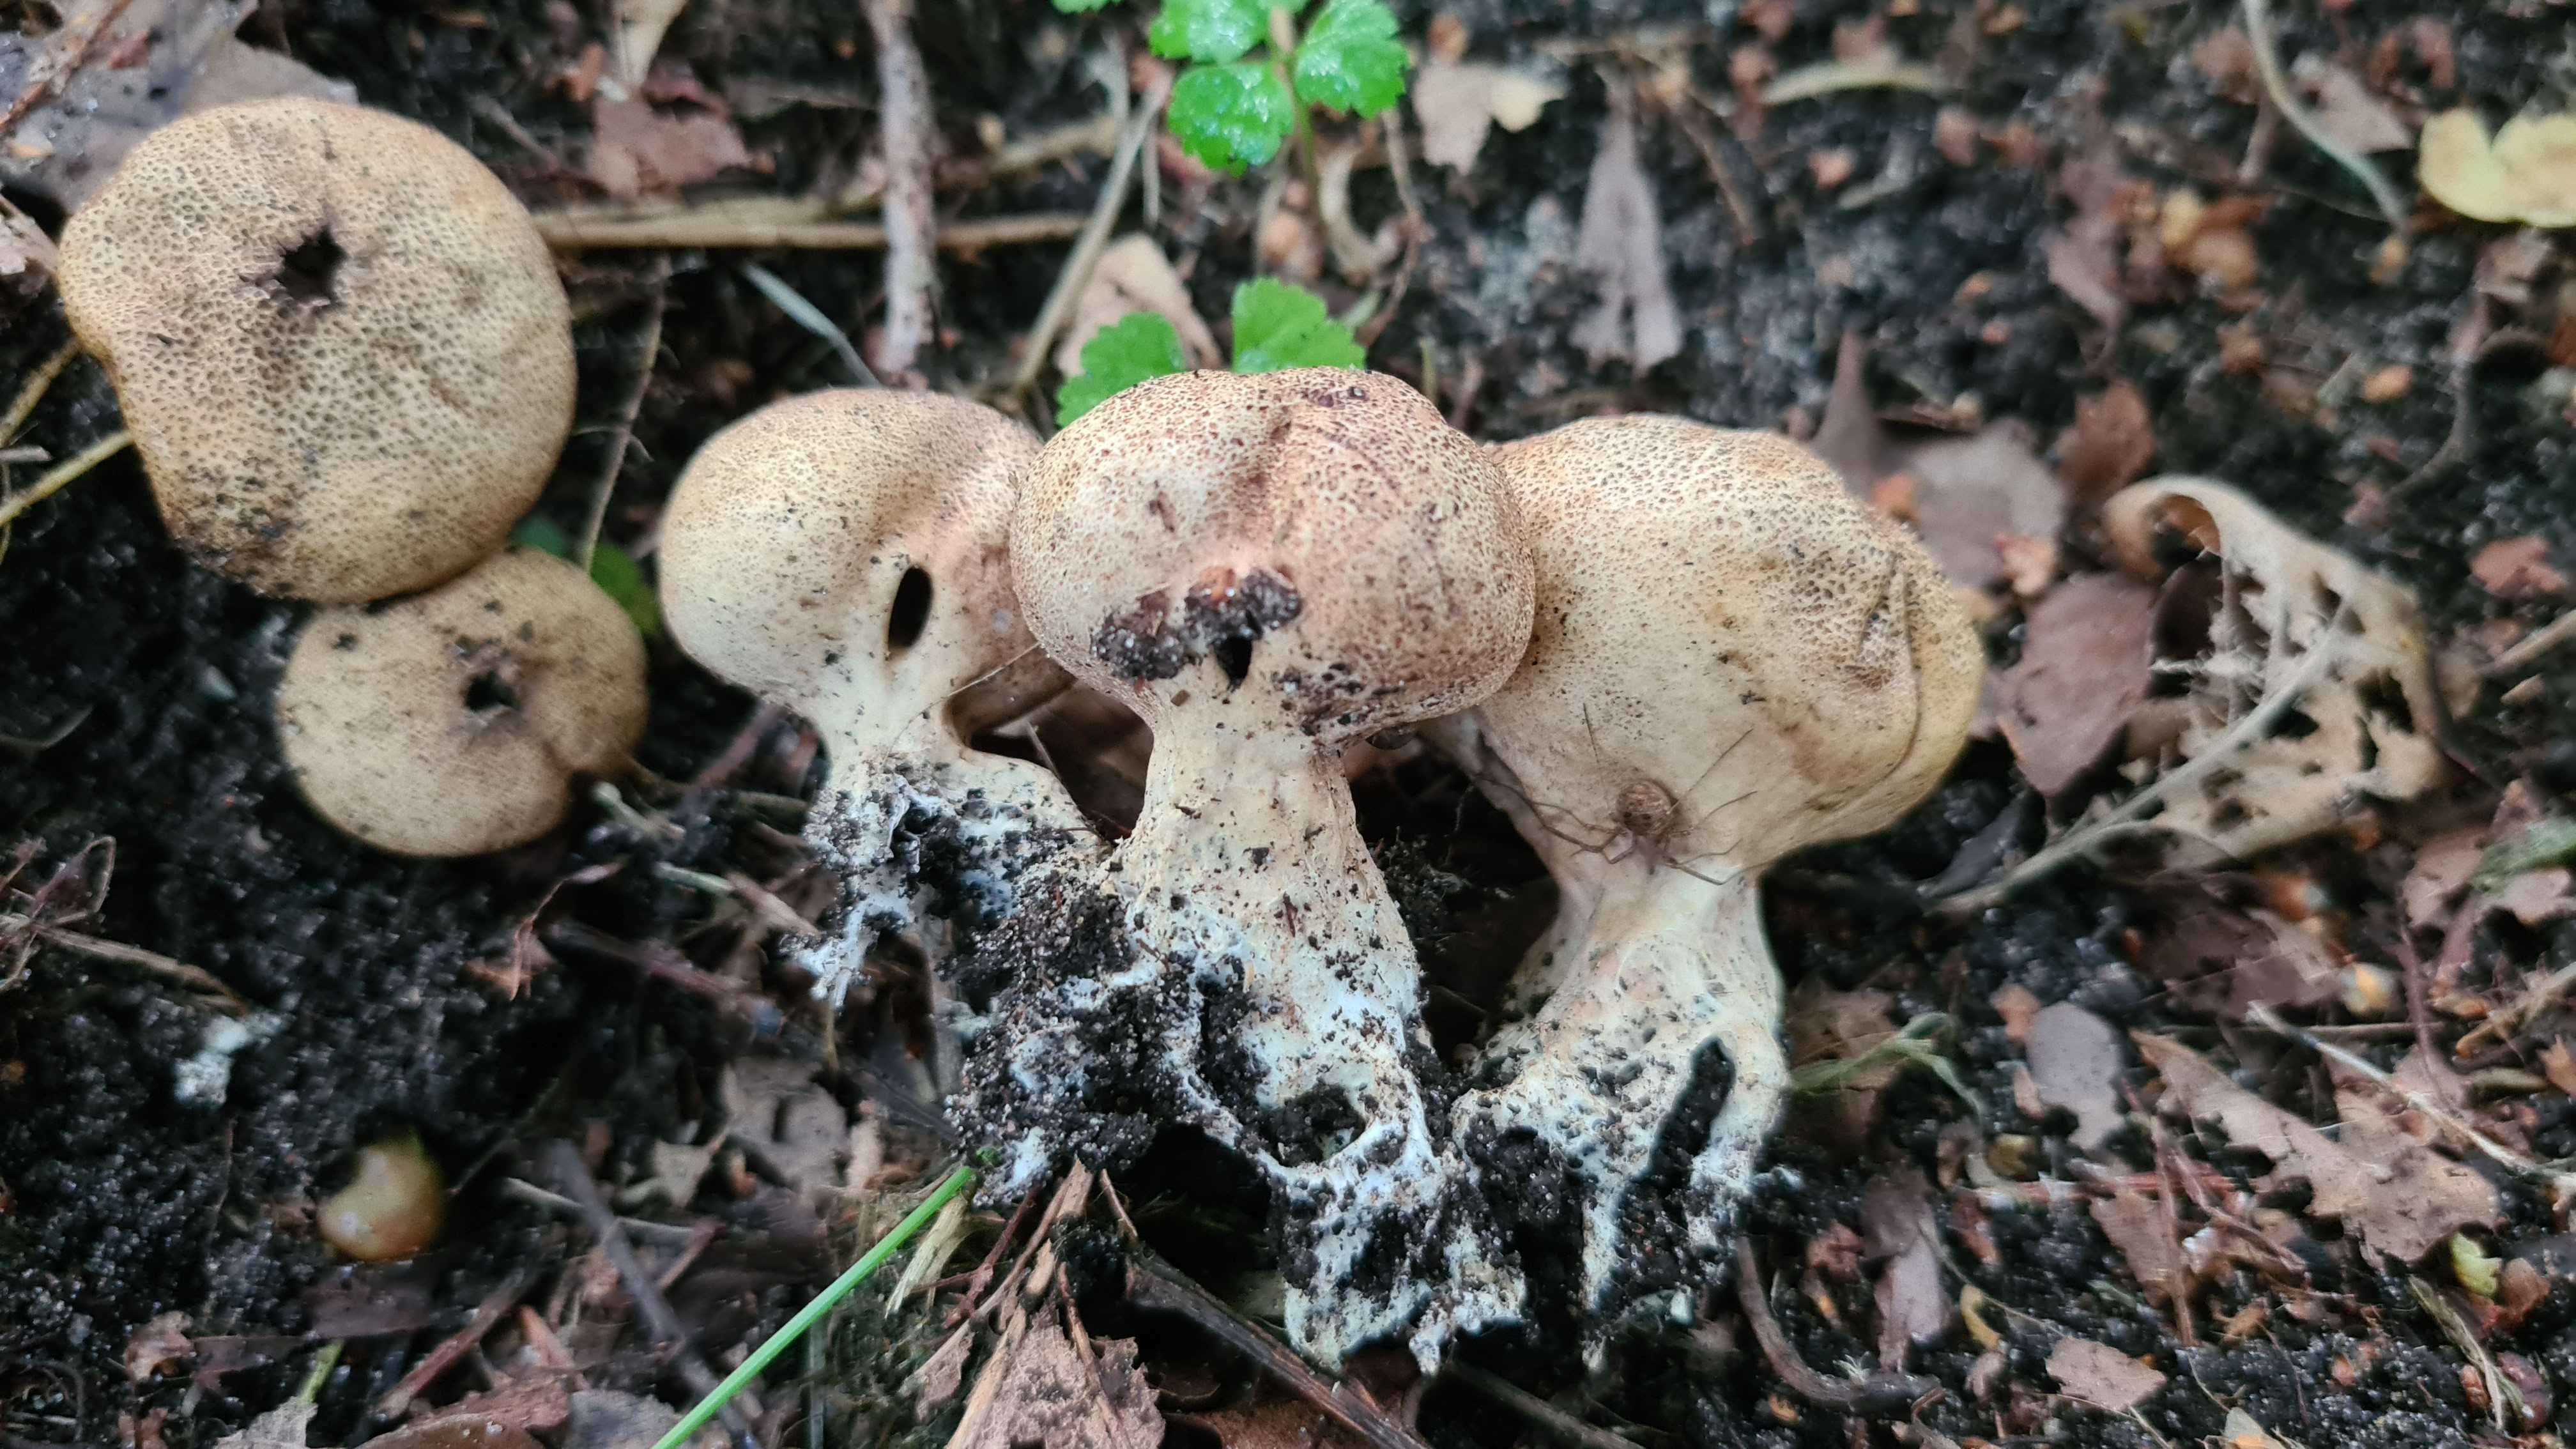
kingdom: Fungi
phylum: Basidiomycota
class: Agaricomycetes
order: Boletales
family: Sclerodermataceae
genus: Scleroderma
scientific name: Scleroderma verrucosum
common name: stilket bruskbold
